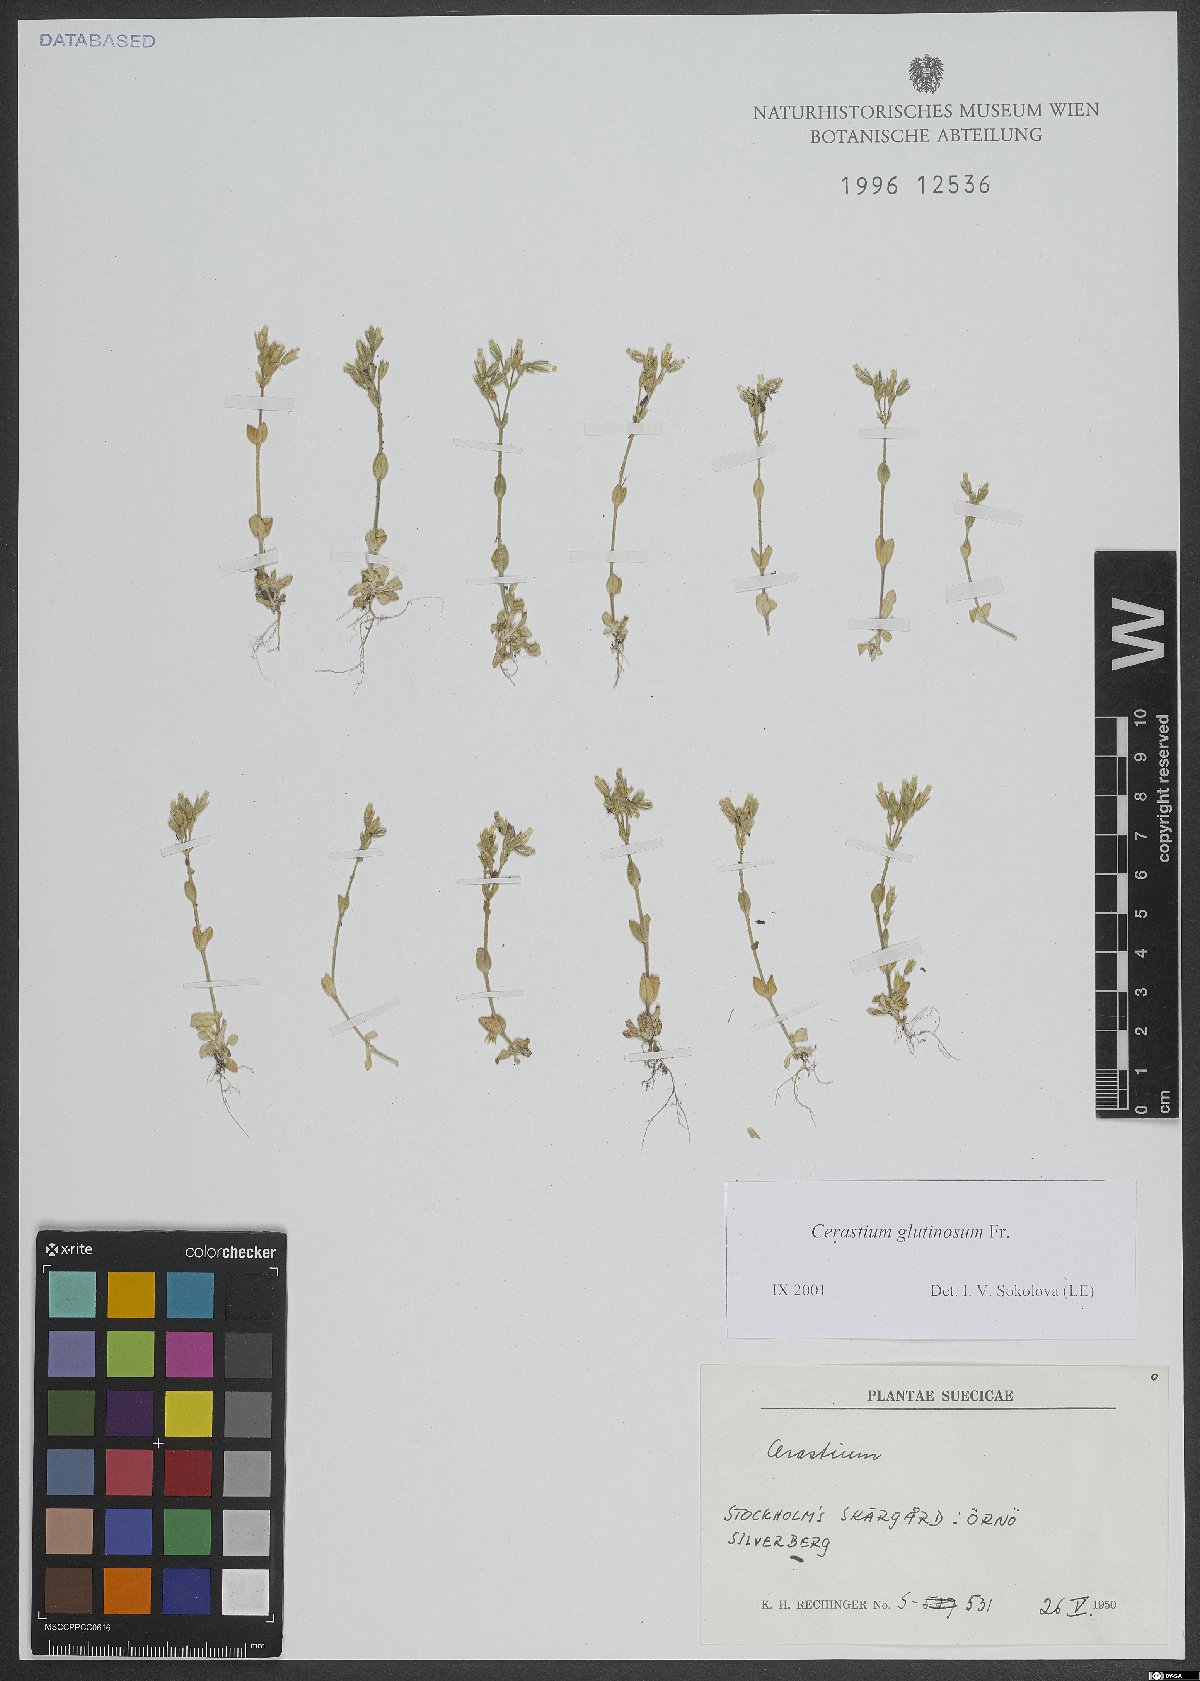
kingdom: Plantae
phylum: Tracheophyta
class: Magnoliopsida
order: Caryophyllales
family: Caryophyllaceae
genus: Cerastium
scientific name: Cerastium glutinosum
